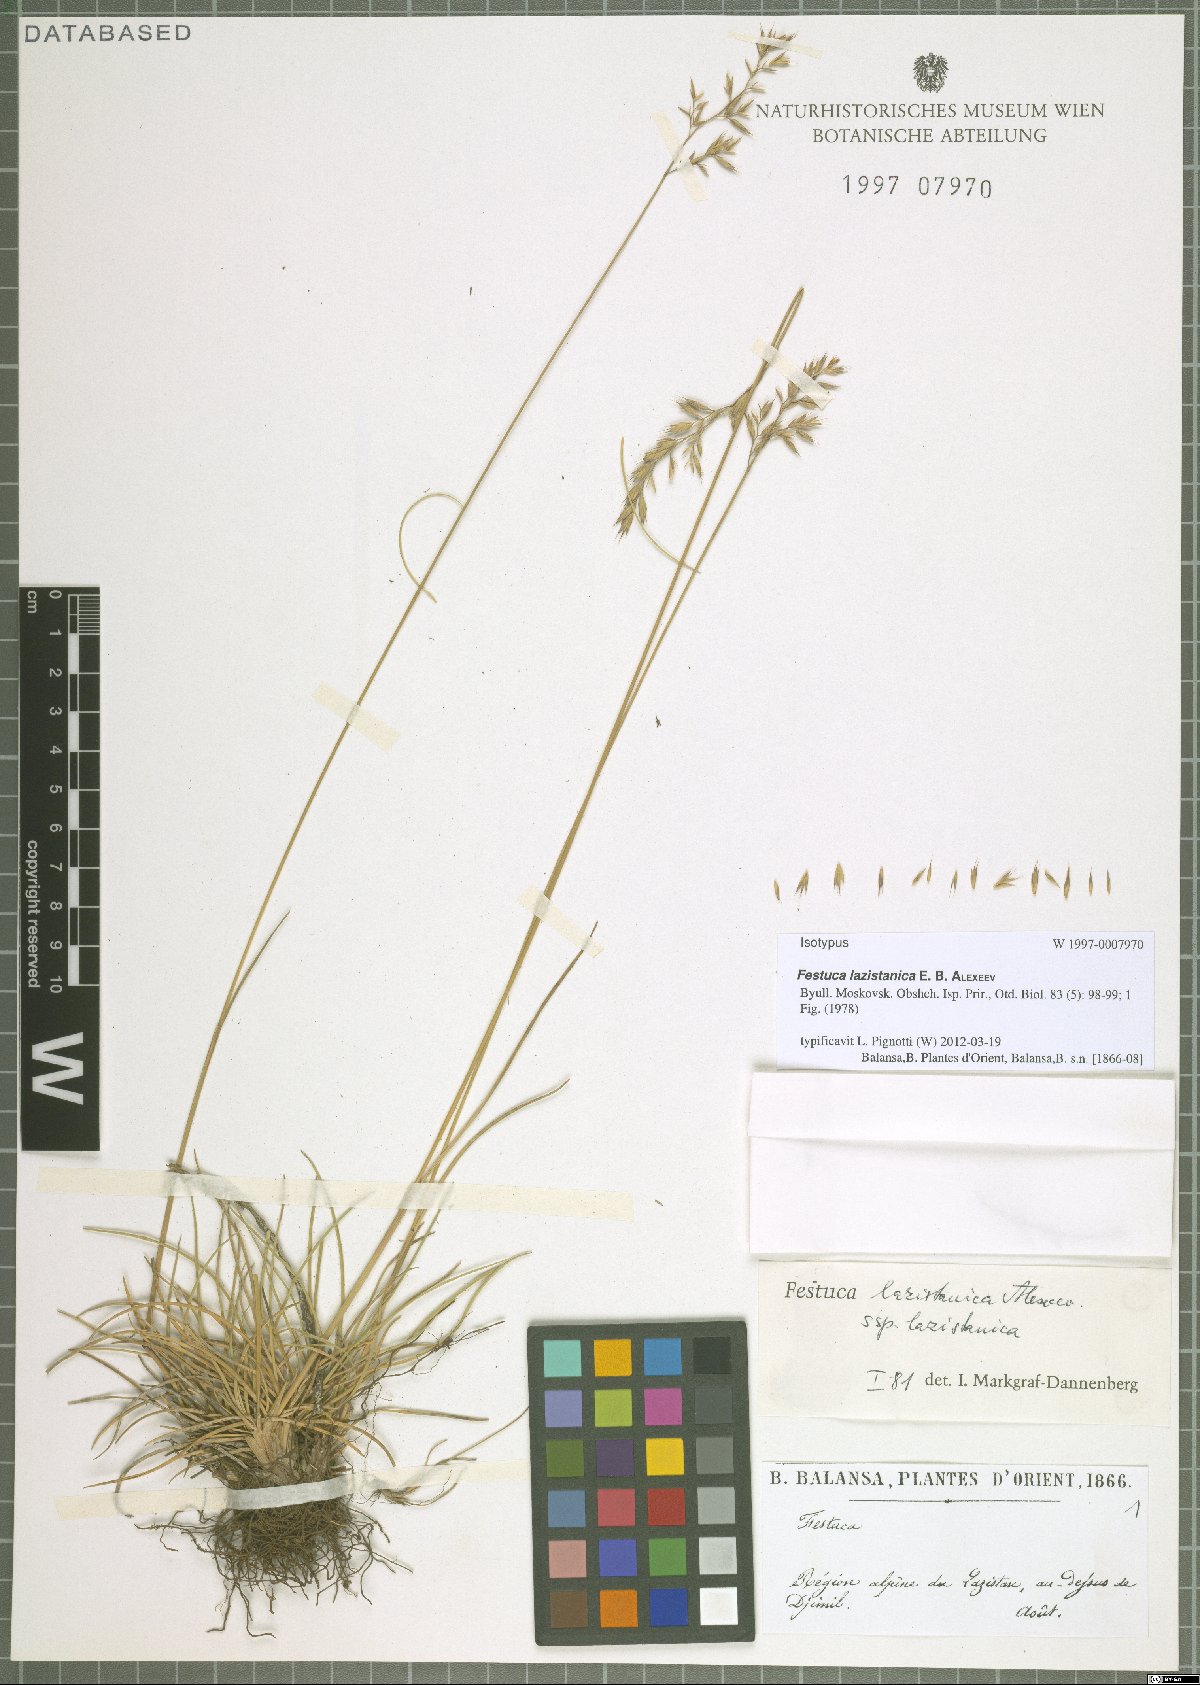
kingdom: Plantae
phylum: Tracheophyta
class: Liliopsida
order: Poales
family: Poaceae
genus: Festuca
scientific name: Festuca lazistanica
